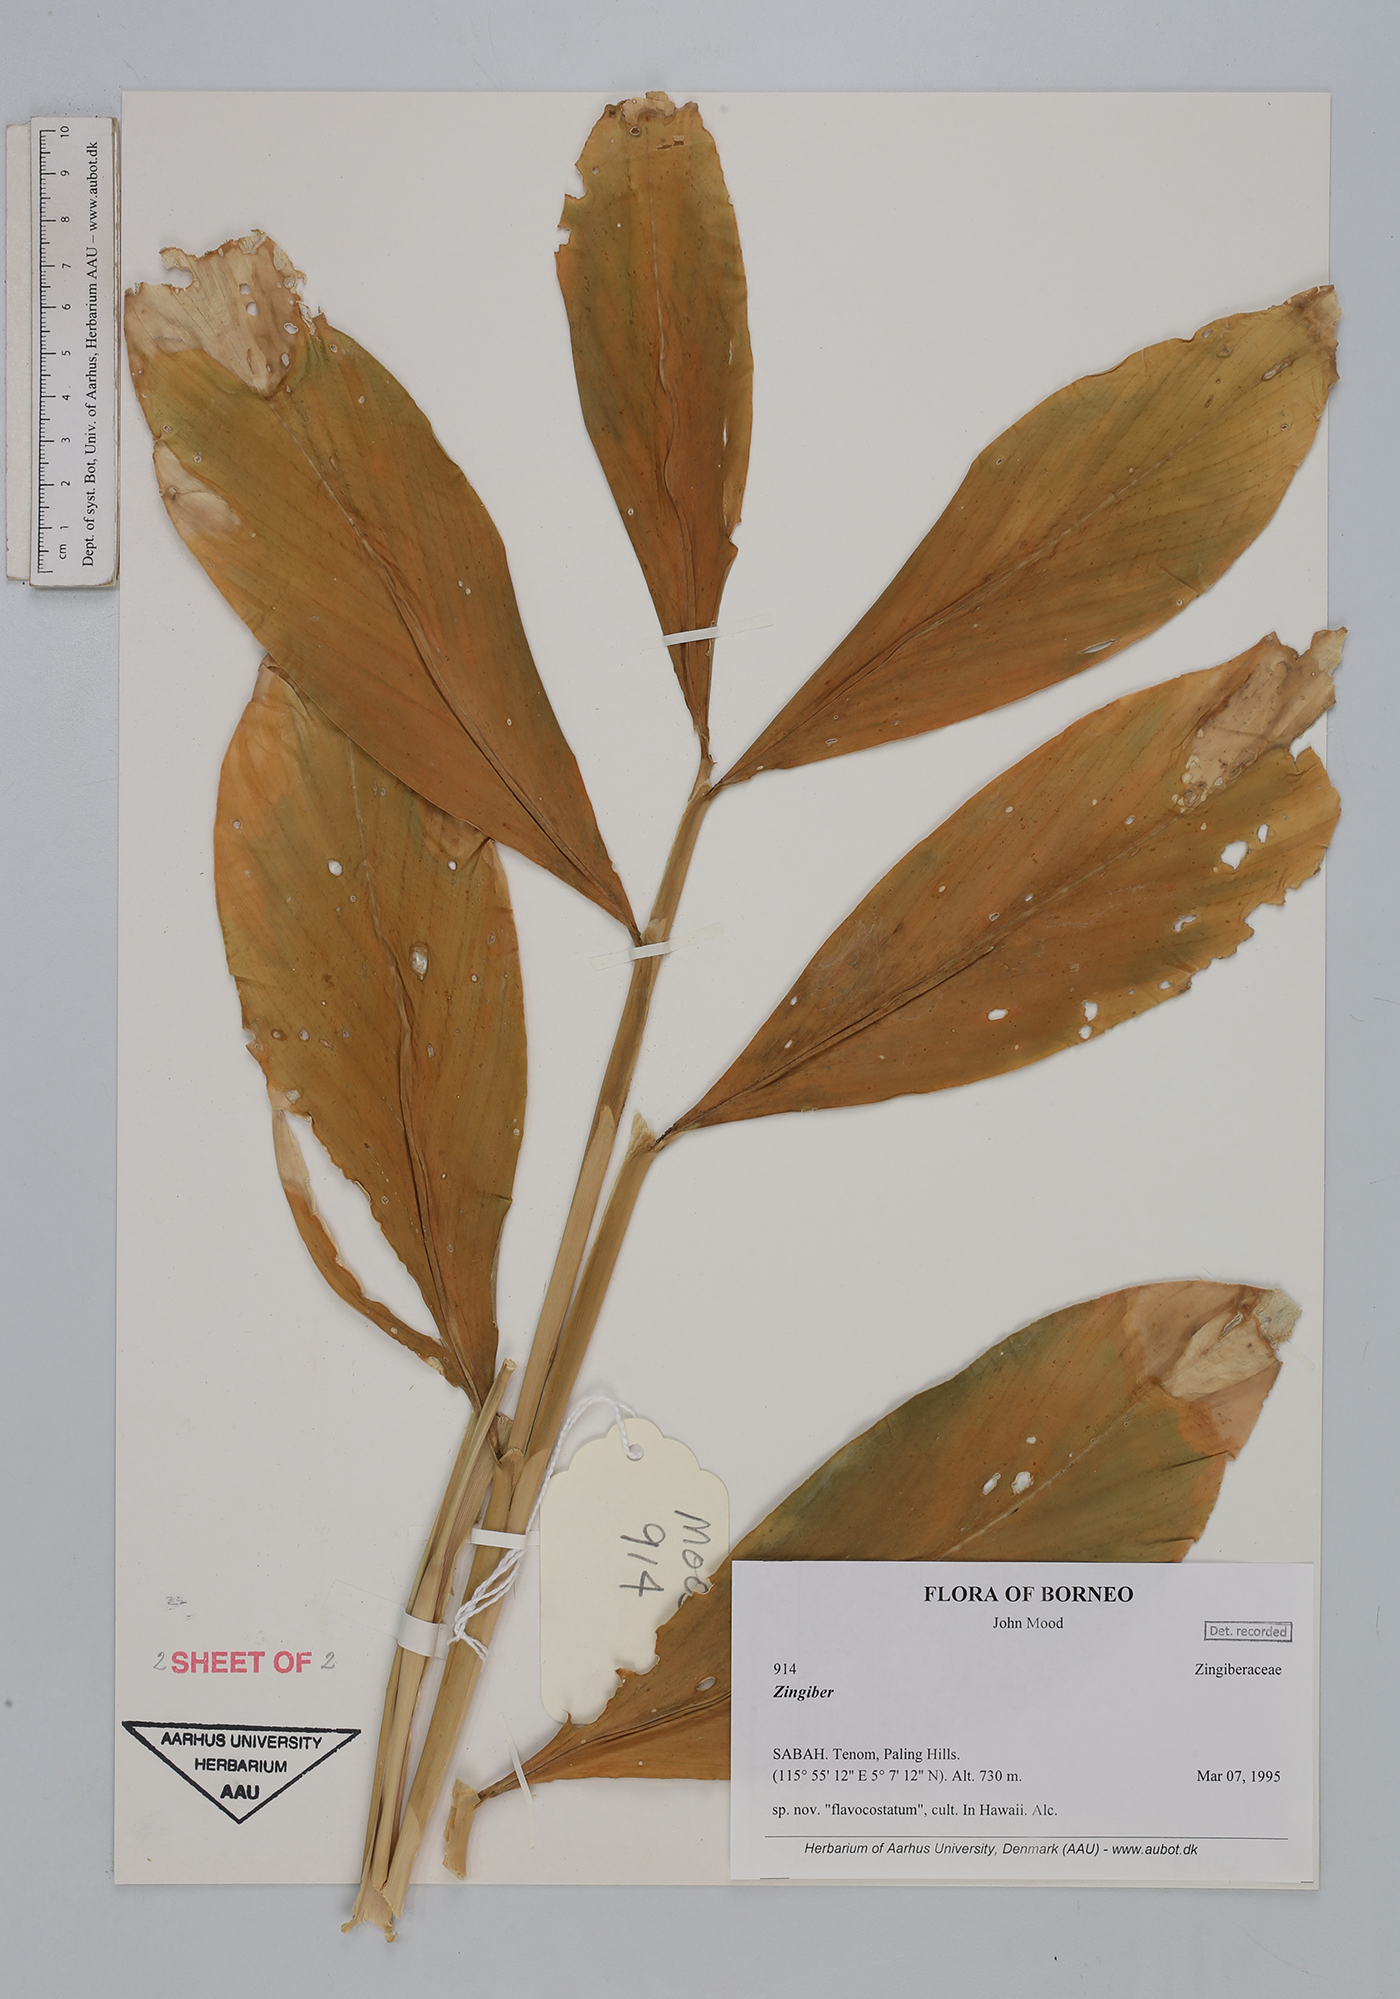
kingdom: Plantae
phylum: Tracheophyta
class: Liliopsida
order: Zingiberales
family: Zingiberaceae
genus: Zingiber
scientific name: Zingiber
